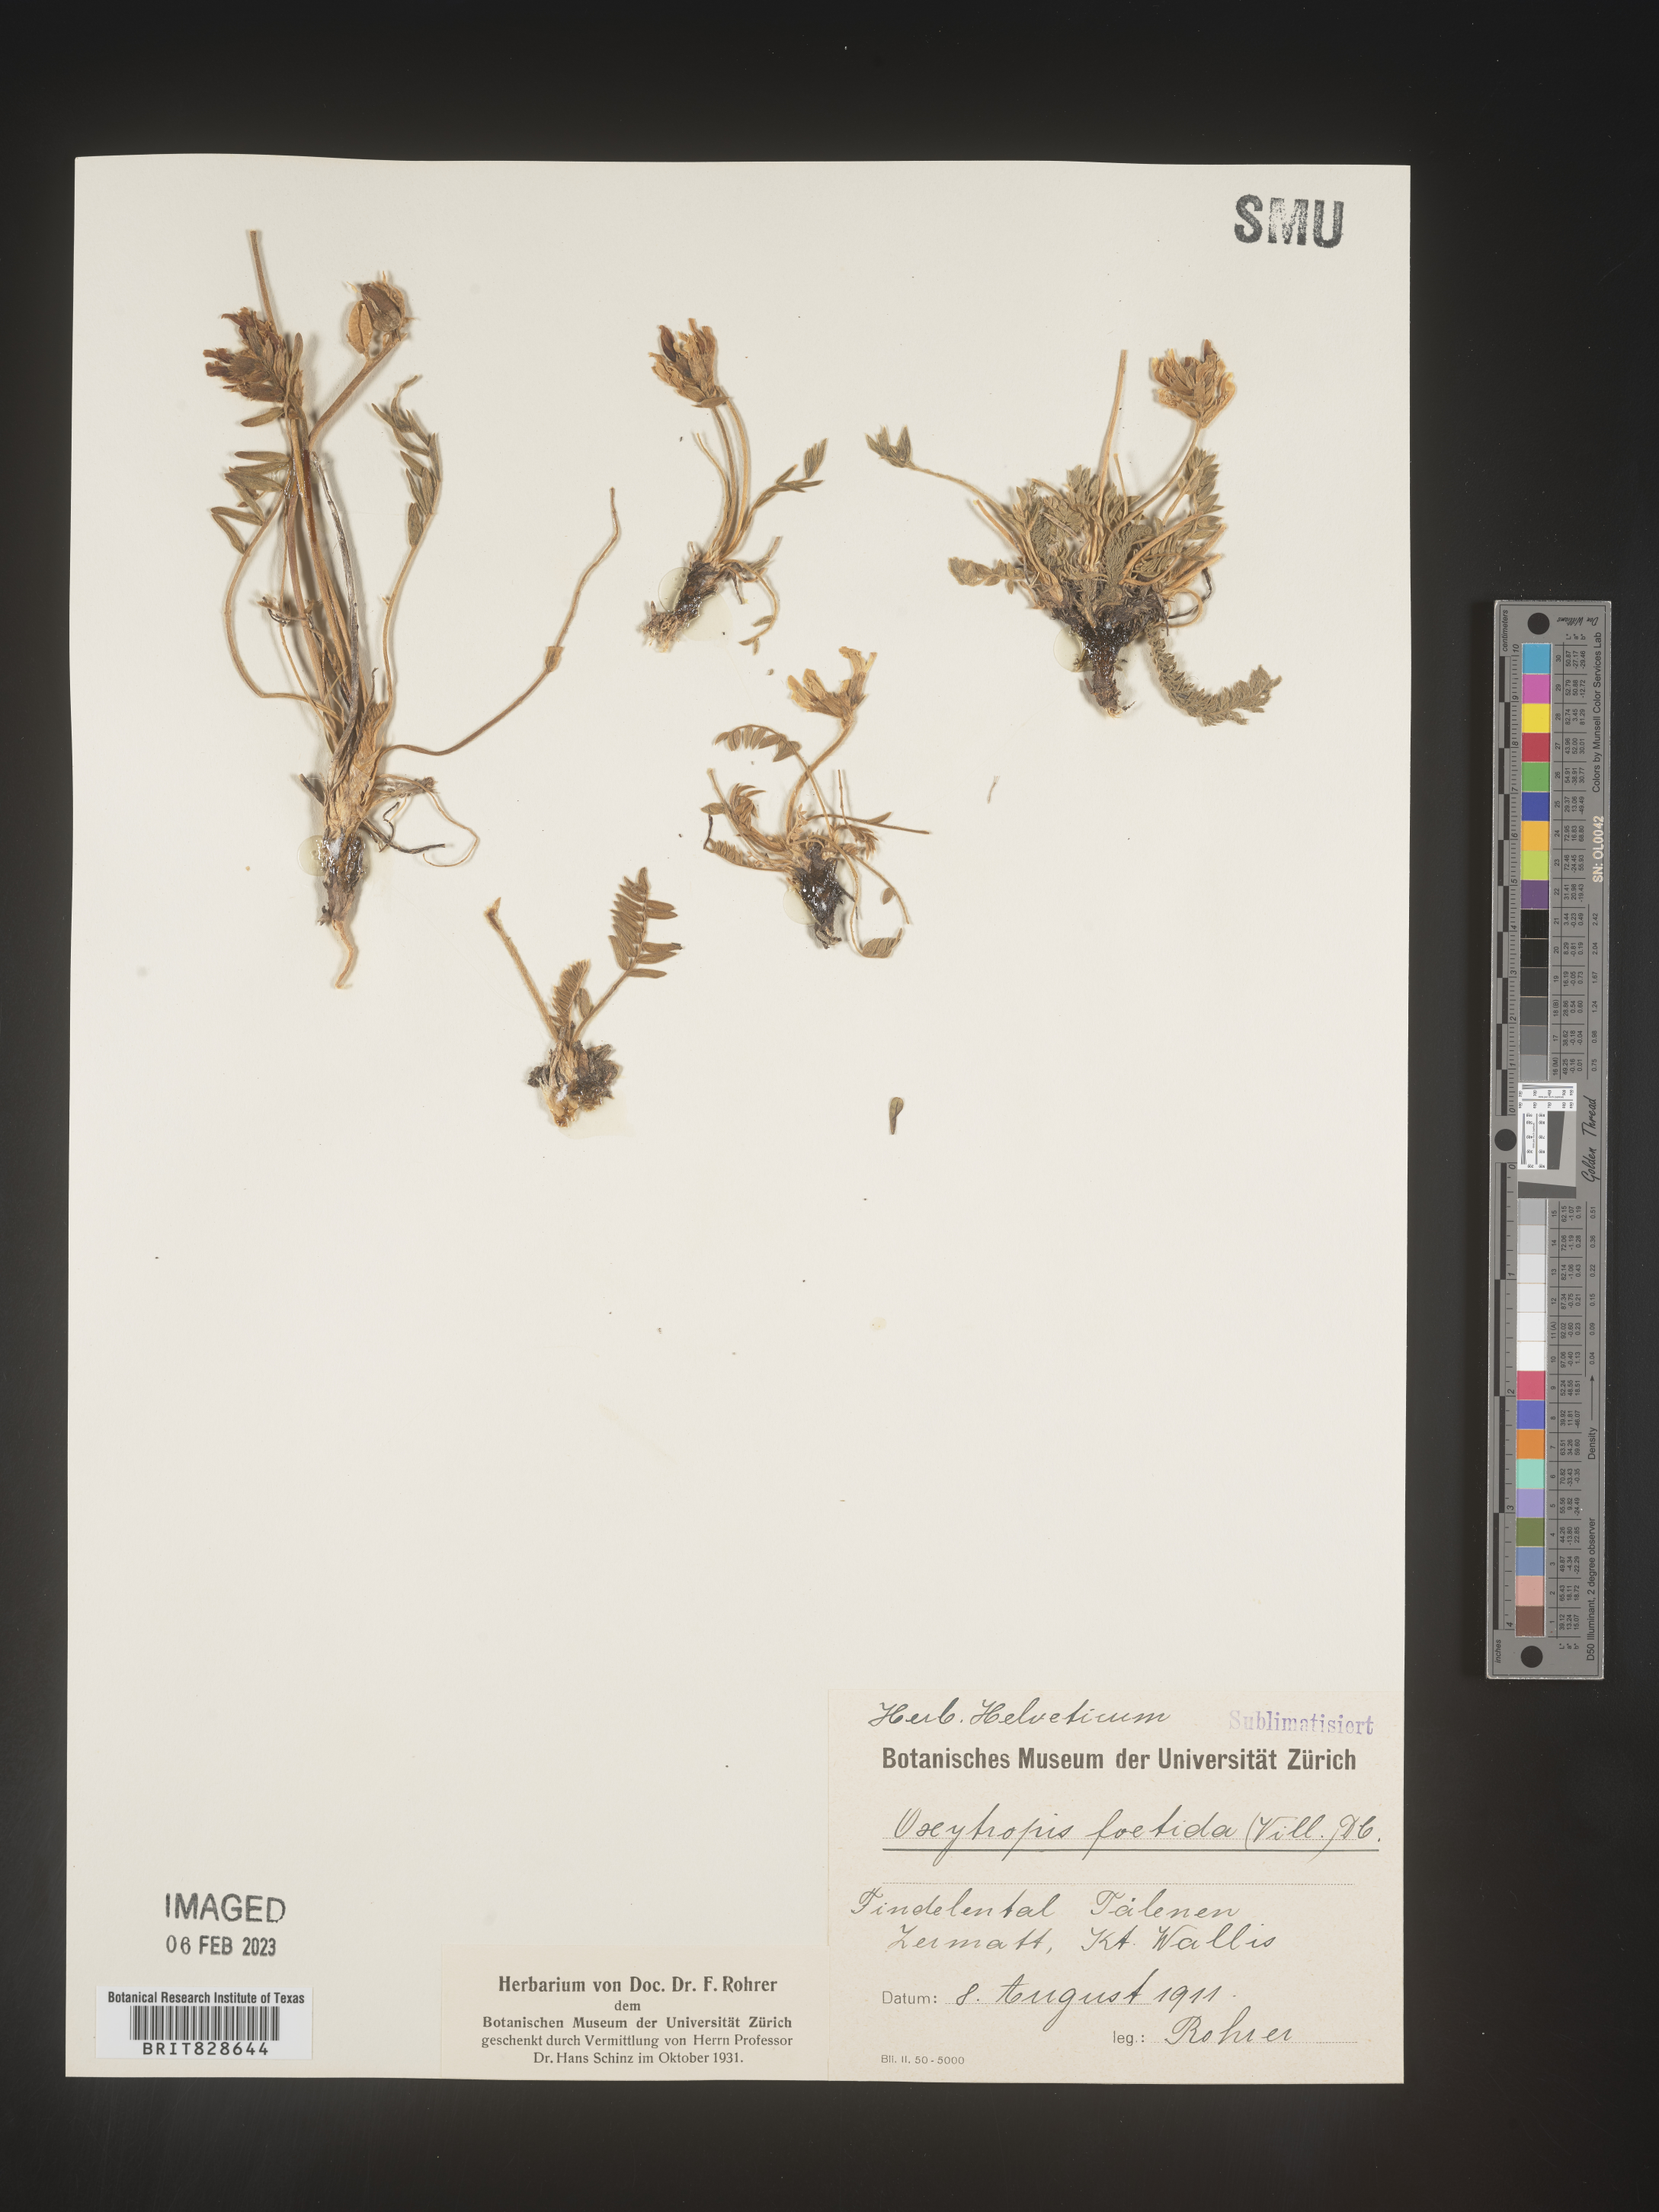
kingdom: Plantae
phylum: Tracheophyta
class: Magnoliopsida
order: Fabales
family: Fabaceae
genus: Oxytropis
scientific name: Oxytropis
